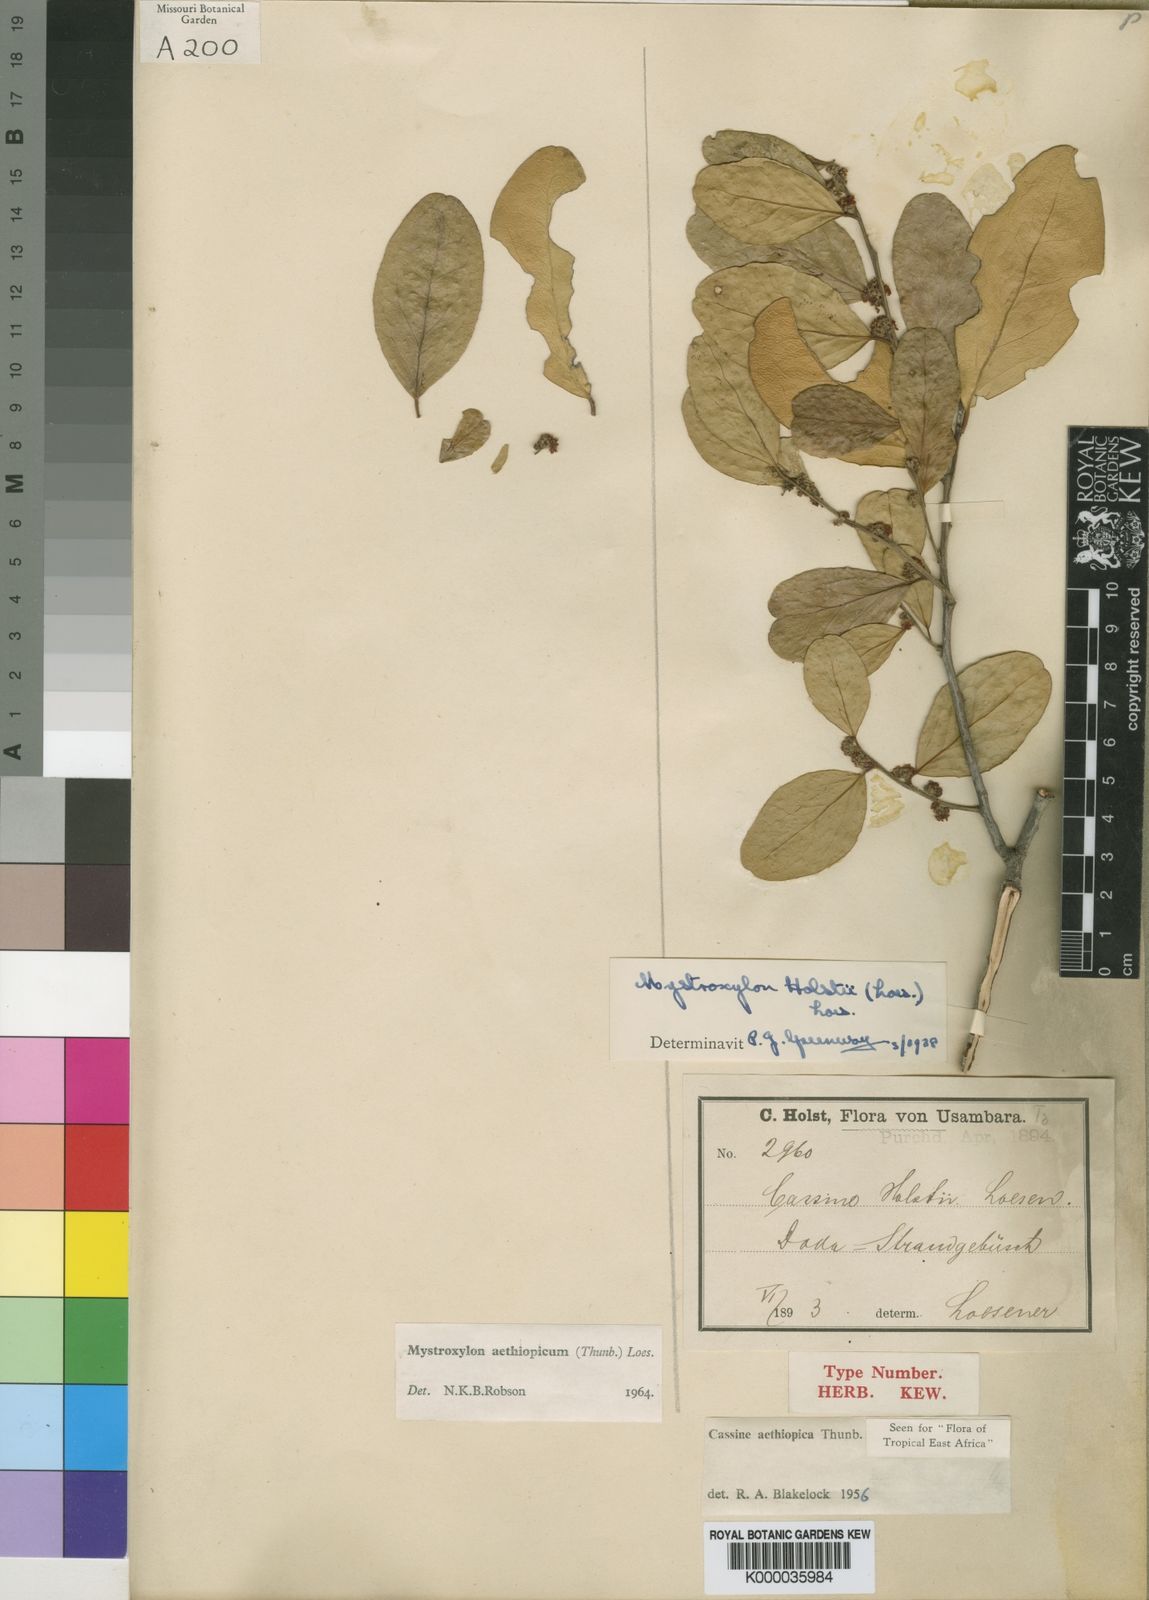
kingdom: Plantae
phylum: Tracheophyta
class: Magnoliopsida
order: Celastrales
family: Celastraceae
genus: Mystroxylon
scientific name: Mystroxylon aethiopicum
